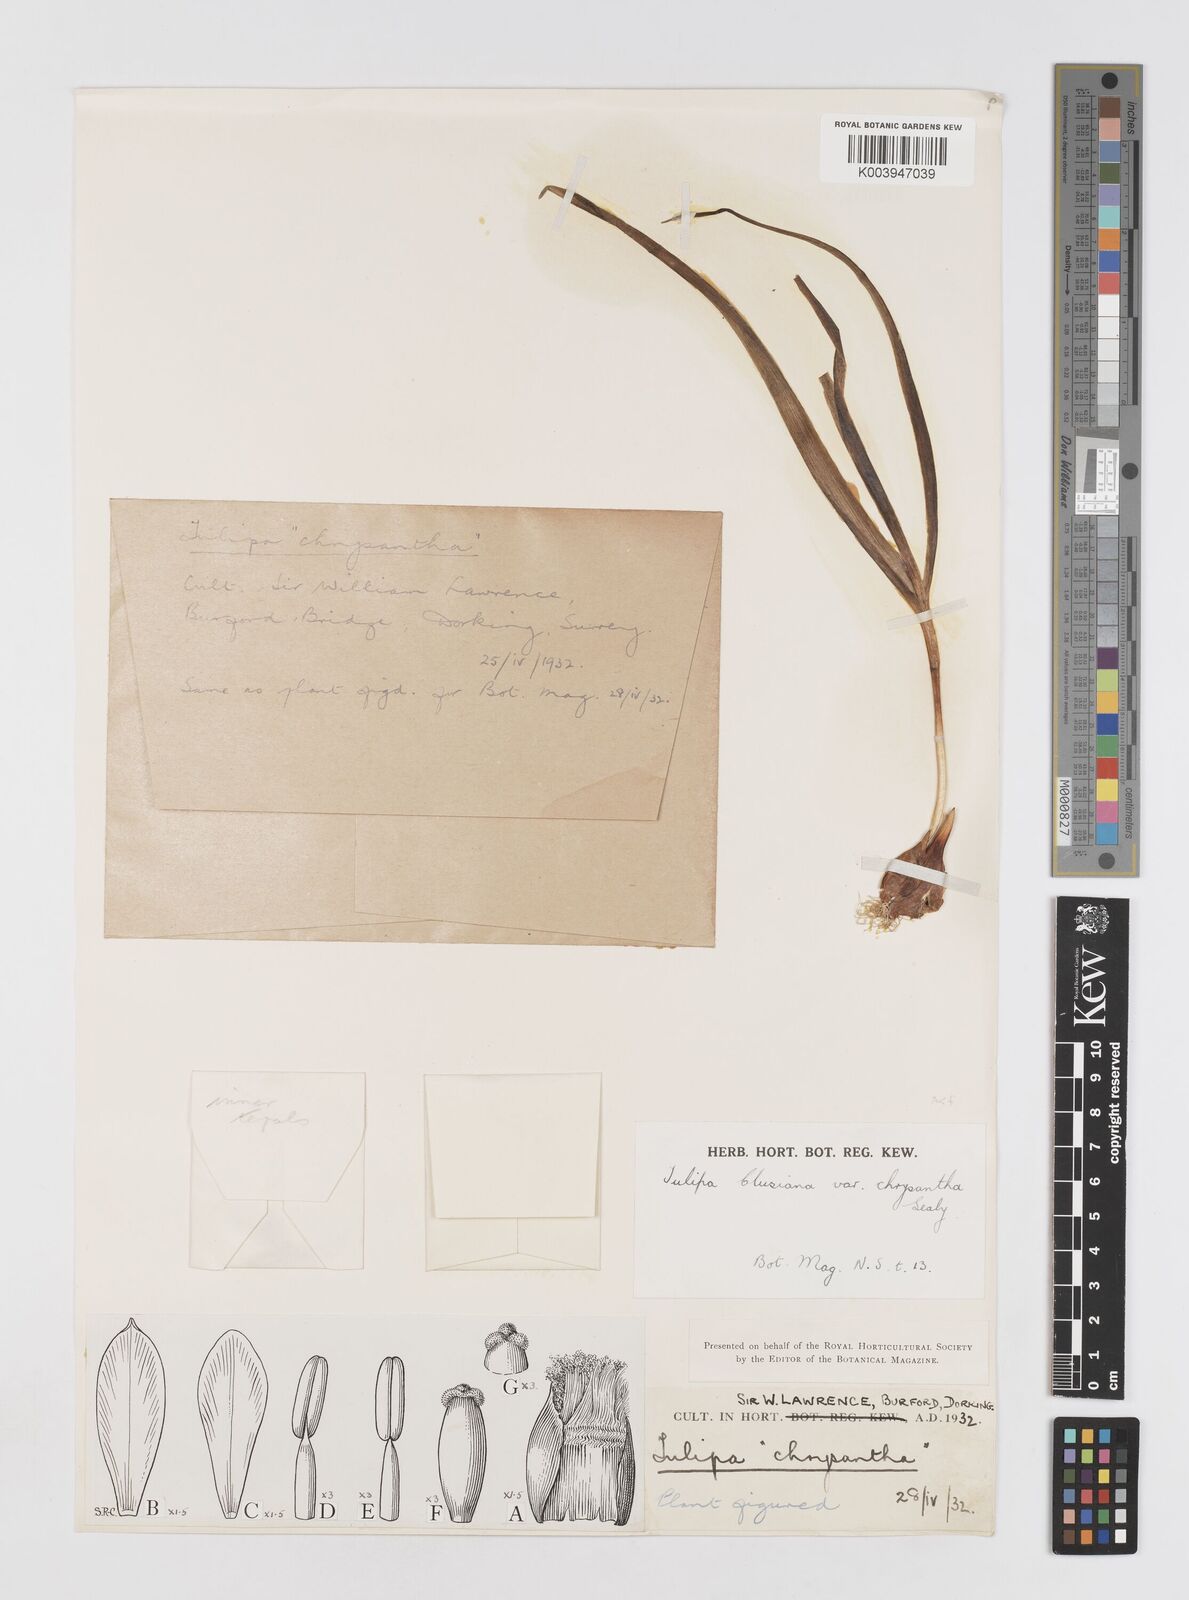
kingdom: Plantae
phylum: Tracheophyta
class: Liliopsida
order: Liliales
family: Liliaceae
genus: Tulipa
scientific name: Tulipa clusiana
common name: Lady tulip
